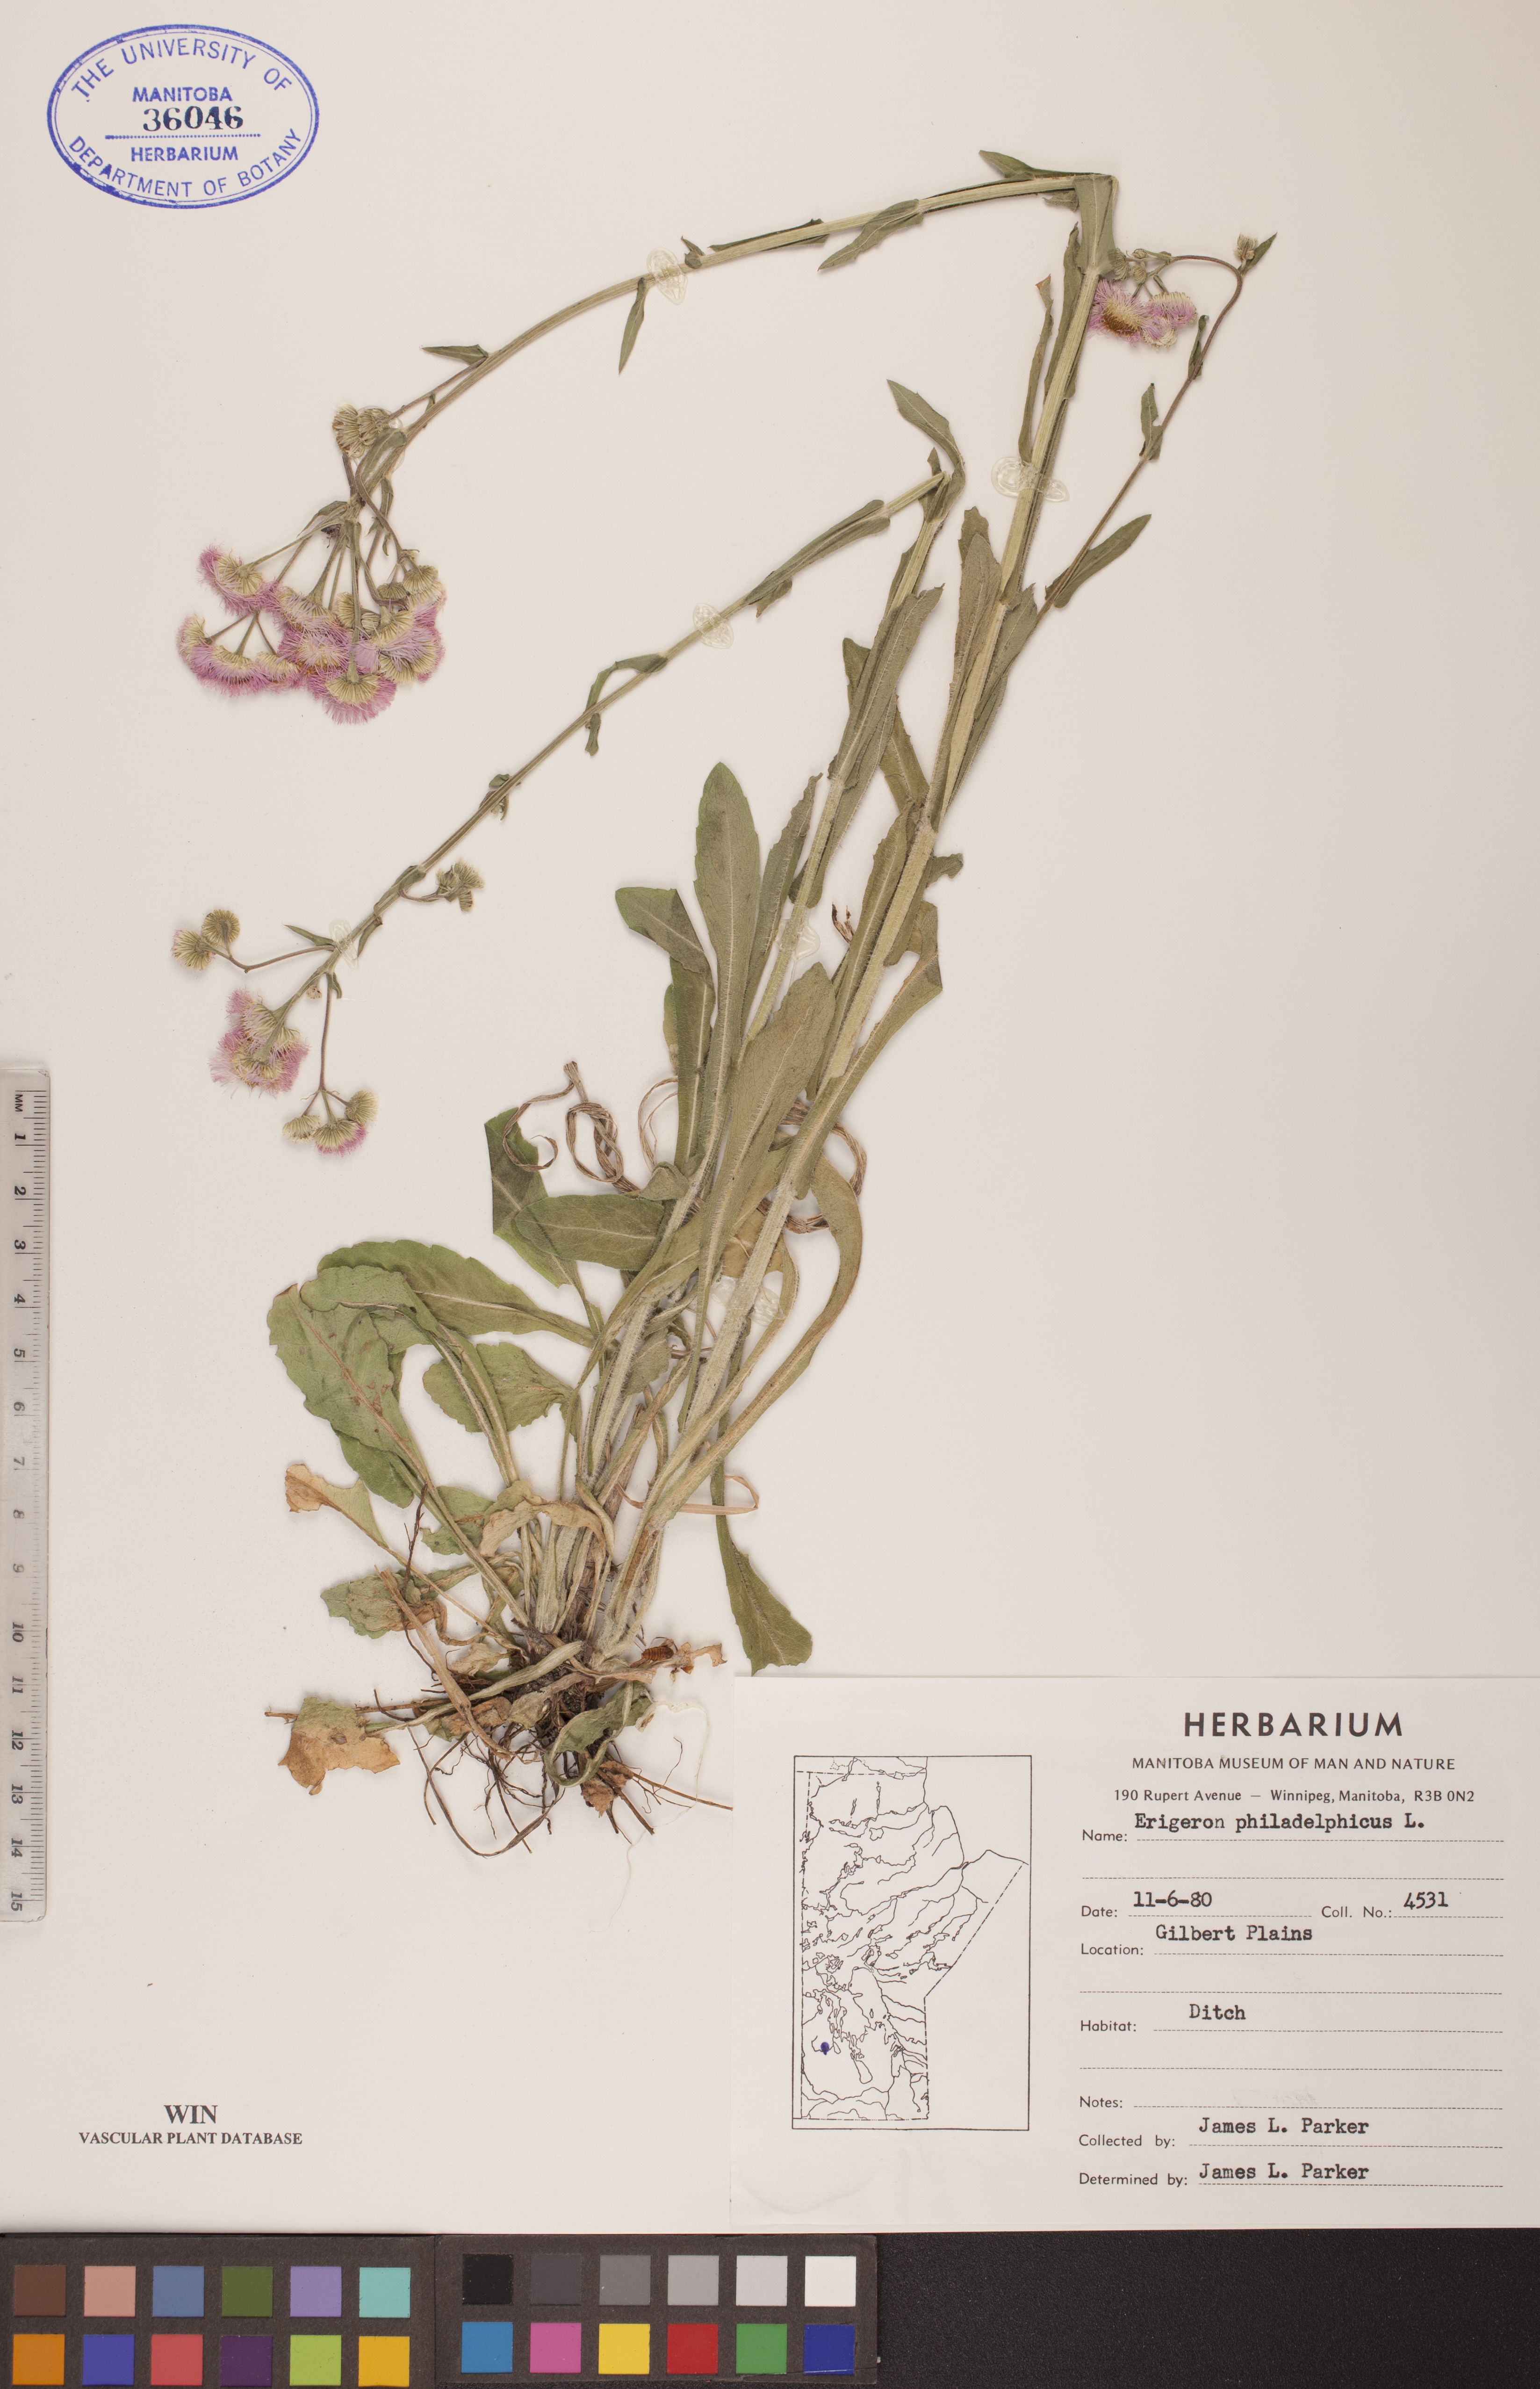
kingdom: Plantae
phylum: Tracheophyta
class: Magnoliopsida
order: Asterales
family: Asteraceae
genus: Erigeron
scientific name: Erigeron philadelphicus
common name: Robin's-plantain
